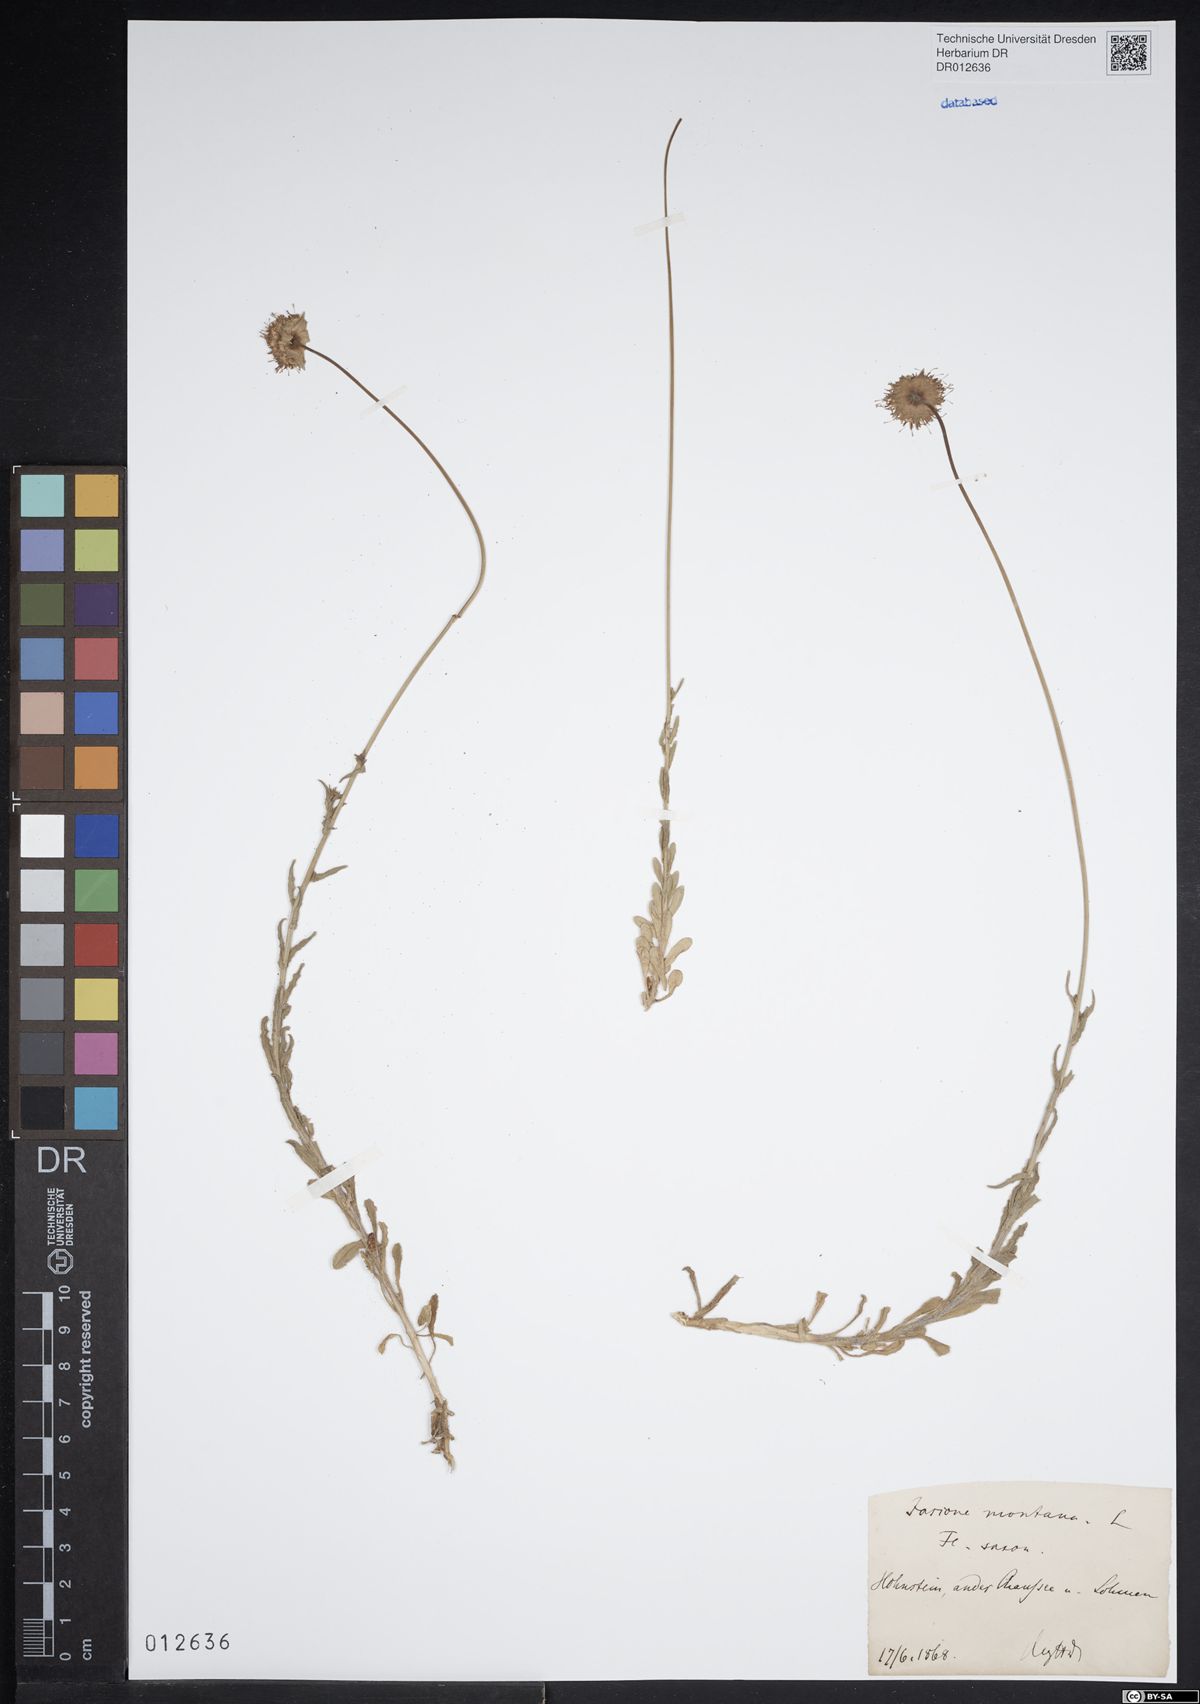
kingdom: Plantae
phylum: Tracheophyta
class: Magnoliopsida
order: Asterales
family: Campanulaceae
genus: Jasione
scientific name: Jasione montana
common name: Sheep's-bit
